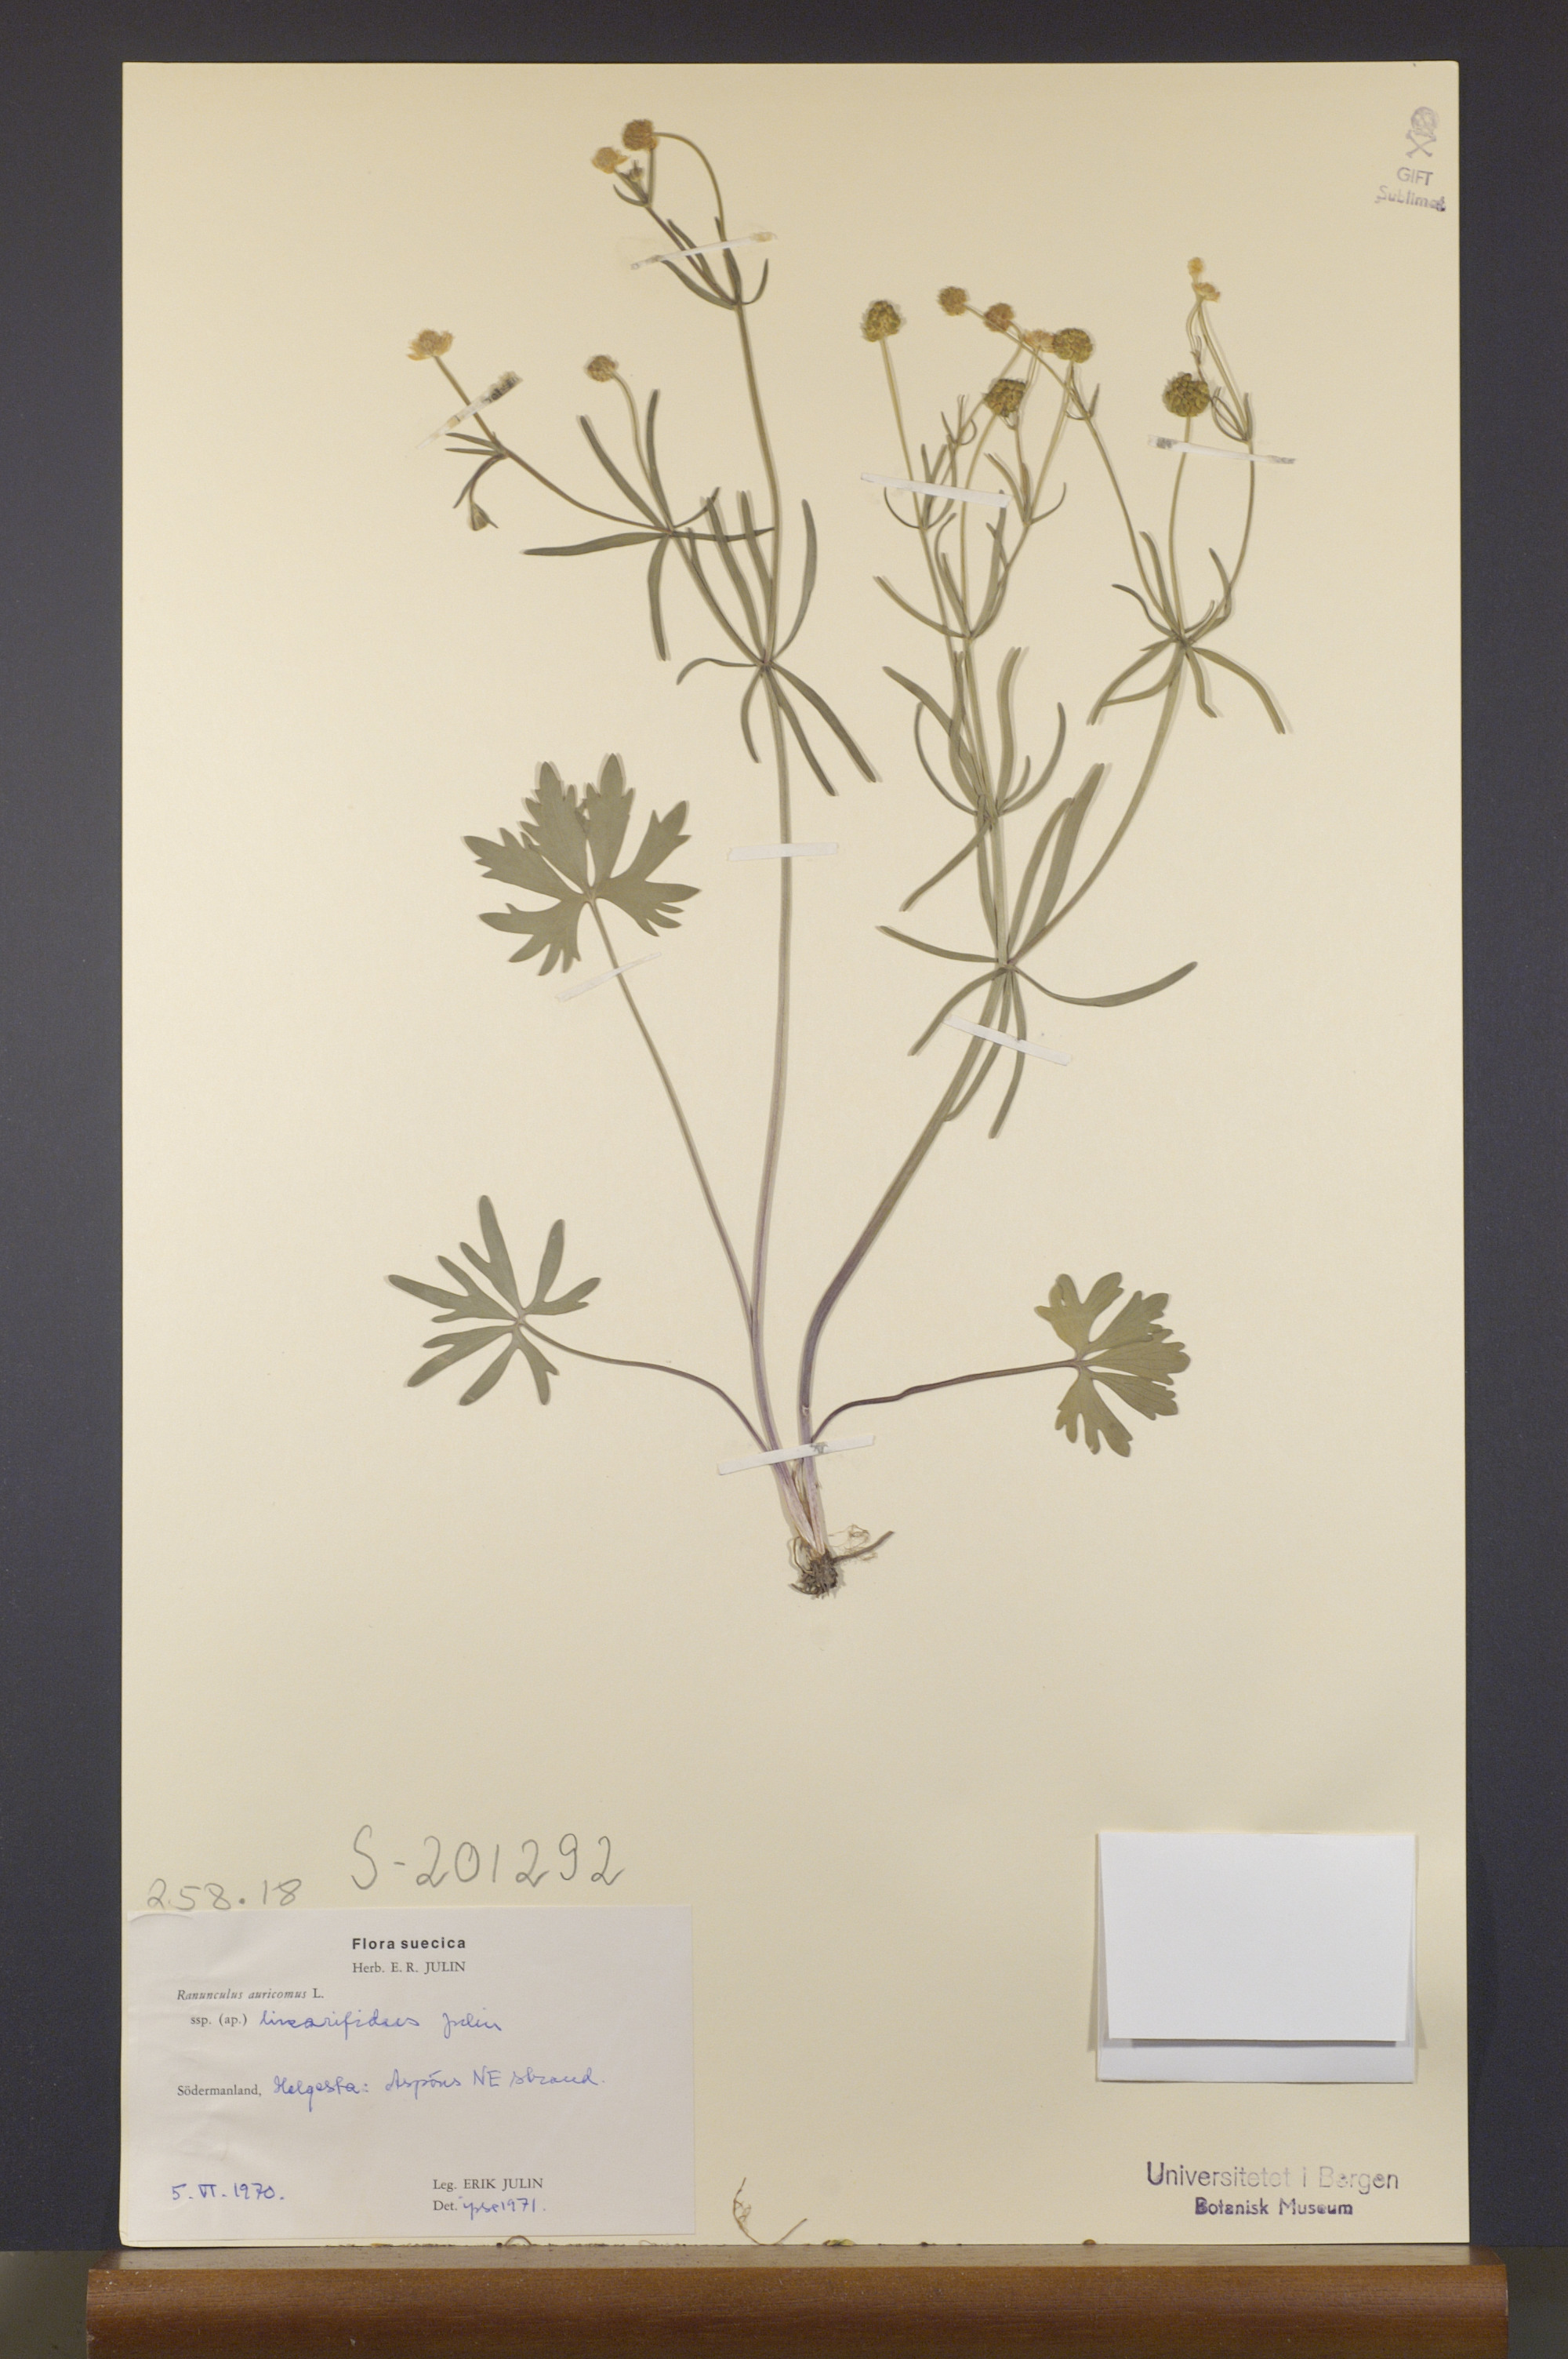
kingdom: Plantae
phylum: Tracheophyta
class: Magnoliopsida
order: Ranunculales
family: Ranunculaceae
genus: Ranunculus
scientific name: Ranunculus linearifidus
